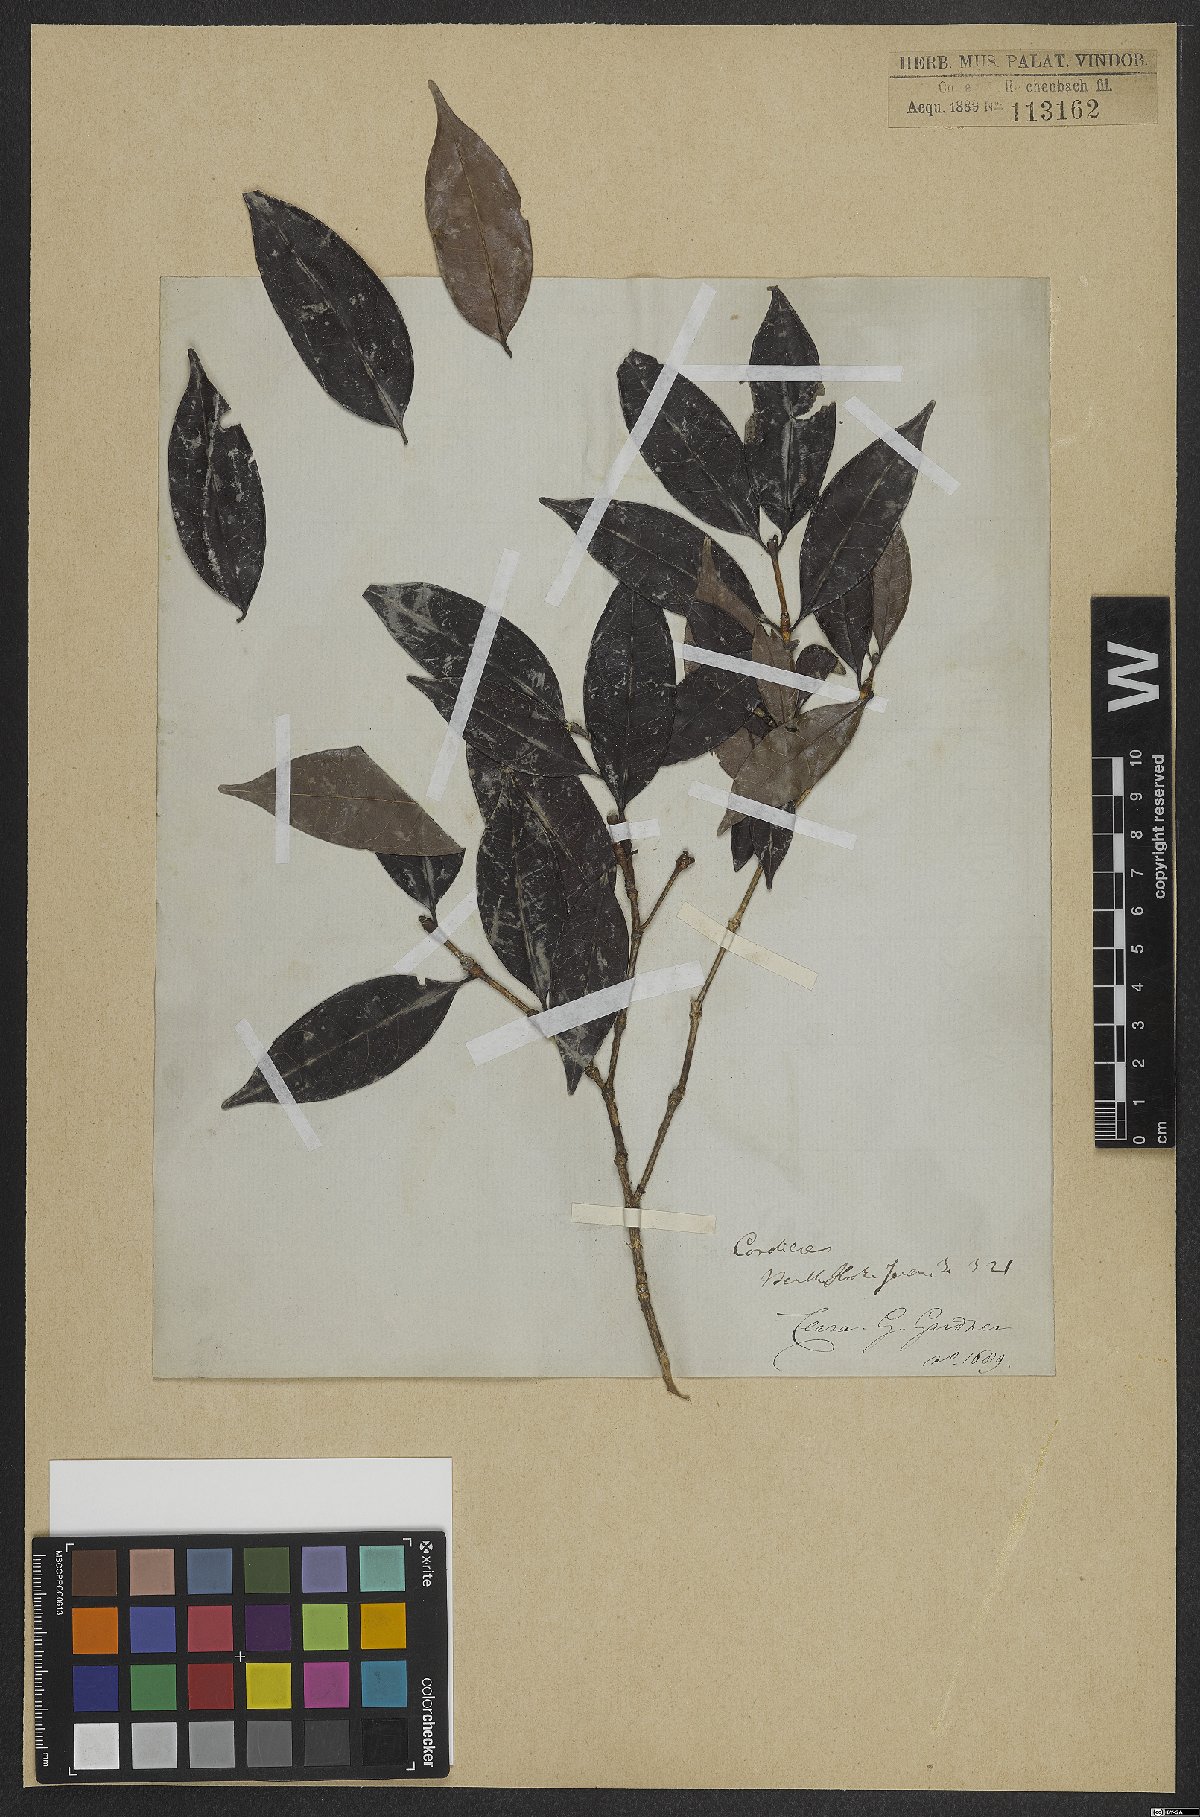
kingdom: Plantae
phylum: Tracheophyta
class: Magnoliopsida
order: Gentianales
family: Rubiaceae
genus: Cordiera
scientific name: Cordiera
